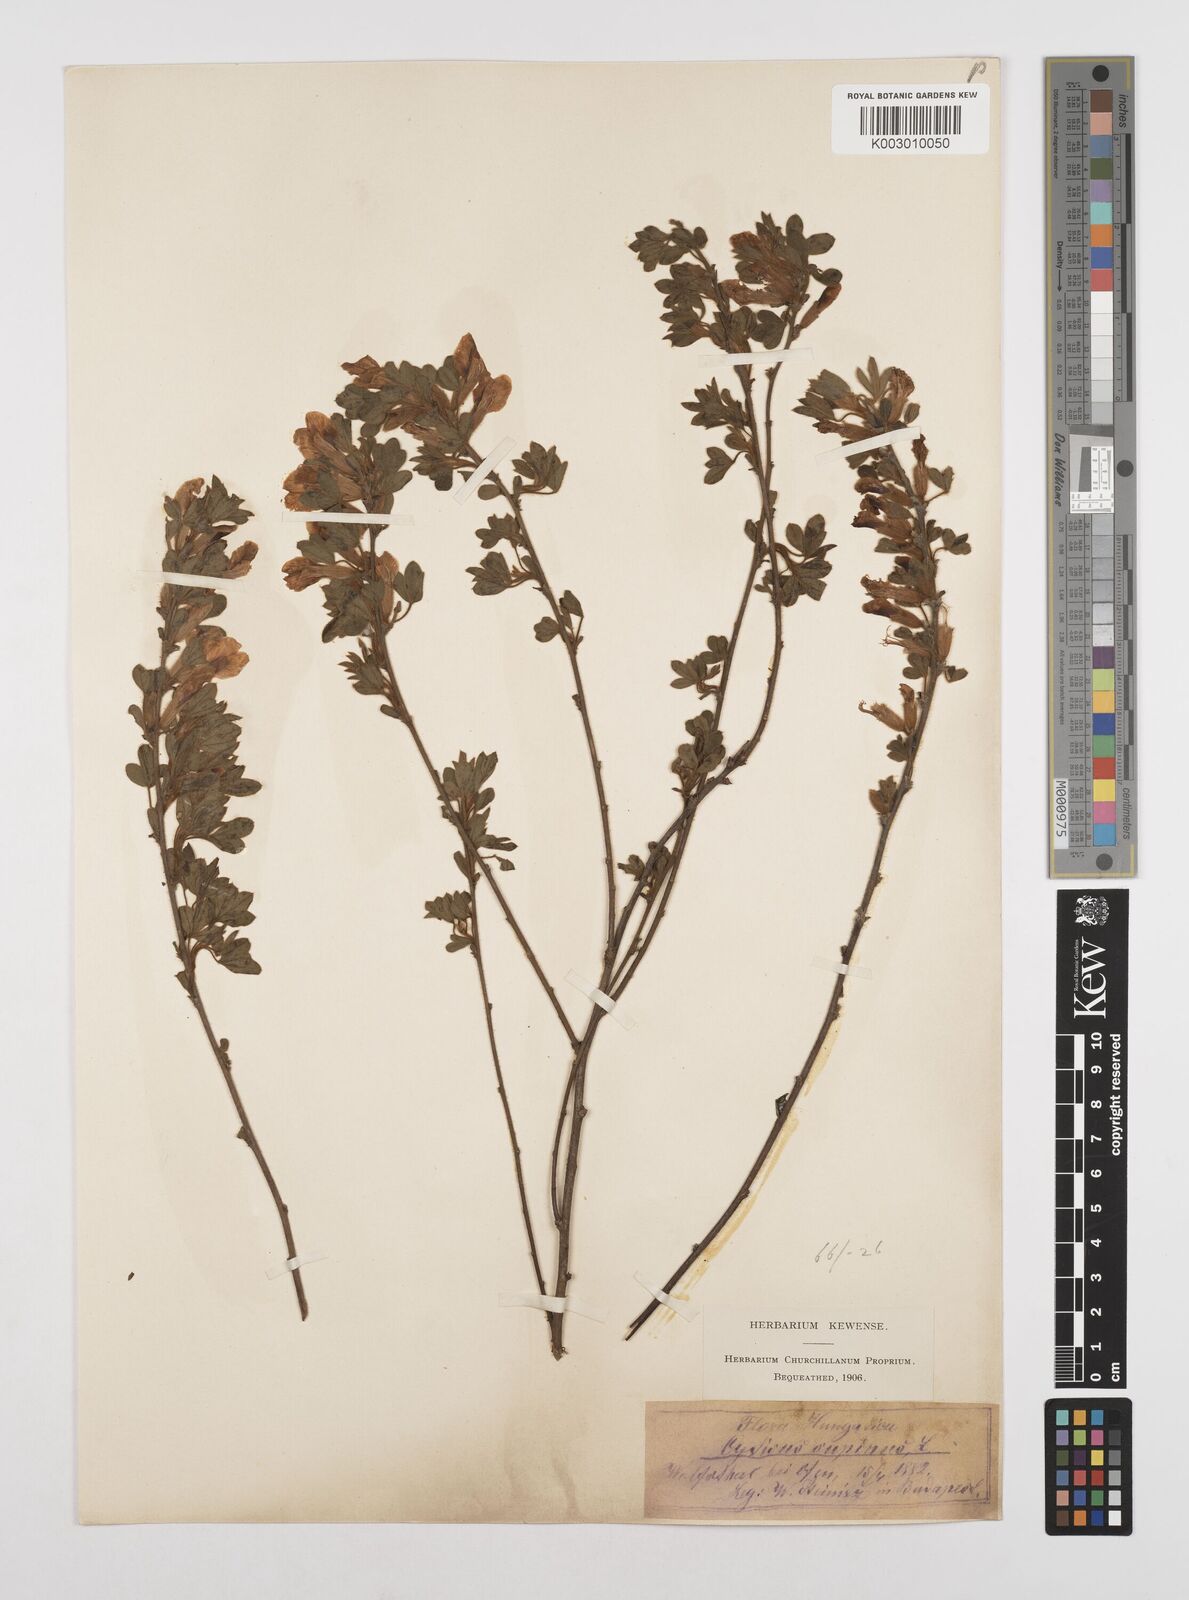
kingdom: Plantae
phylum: Tracheophyta
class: Magnoliopsida
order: Fabales
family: Fabaceae
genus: Chamaecytisus
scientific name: Chamaecytisus hirsutus
